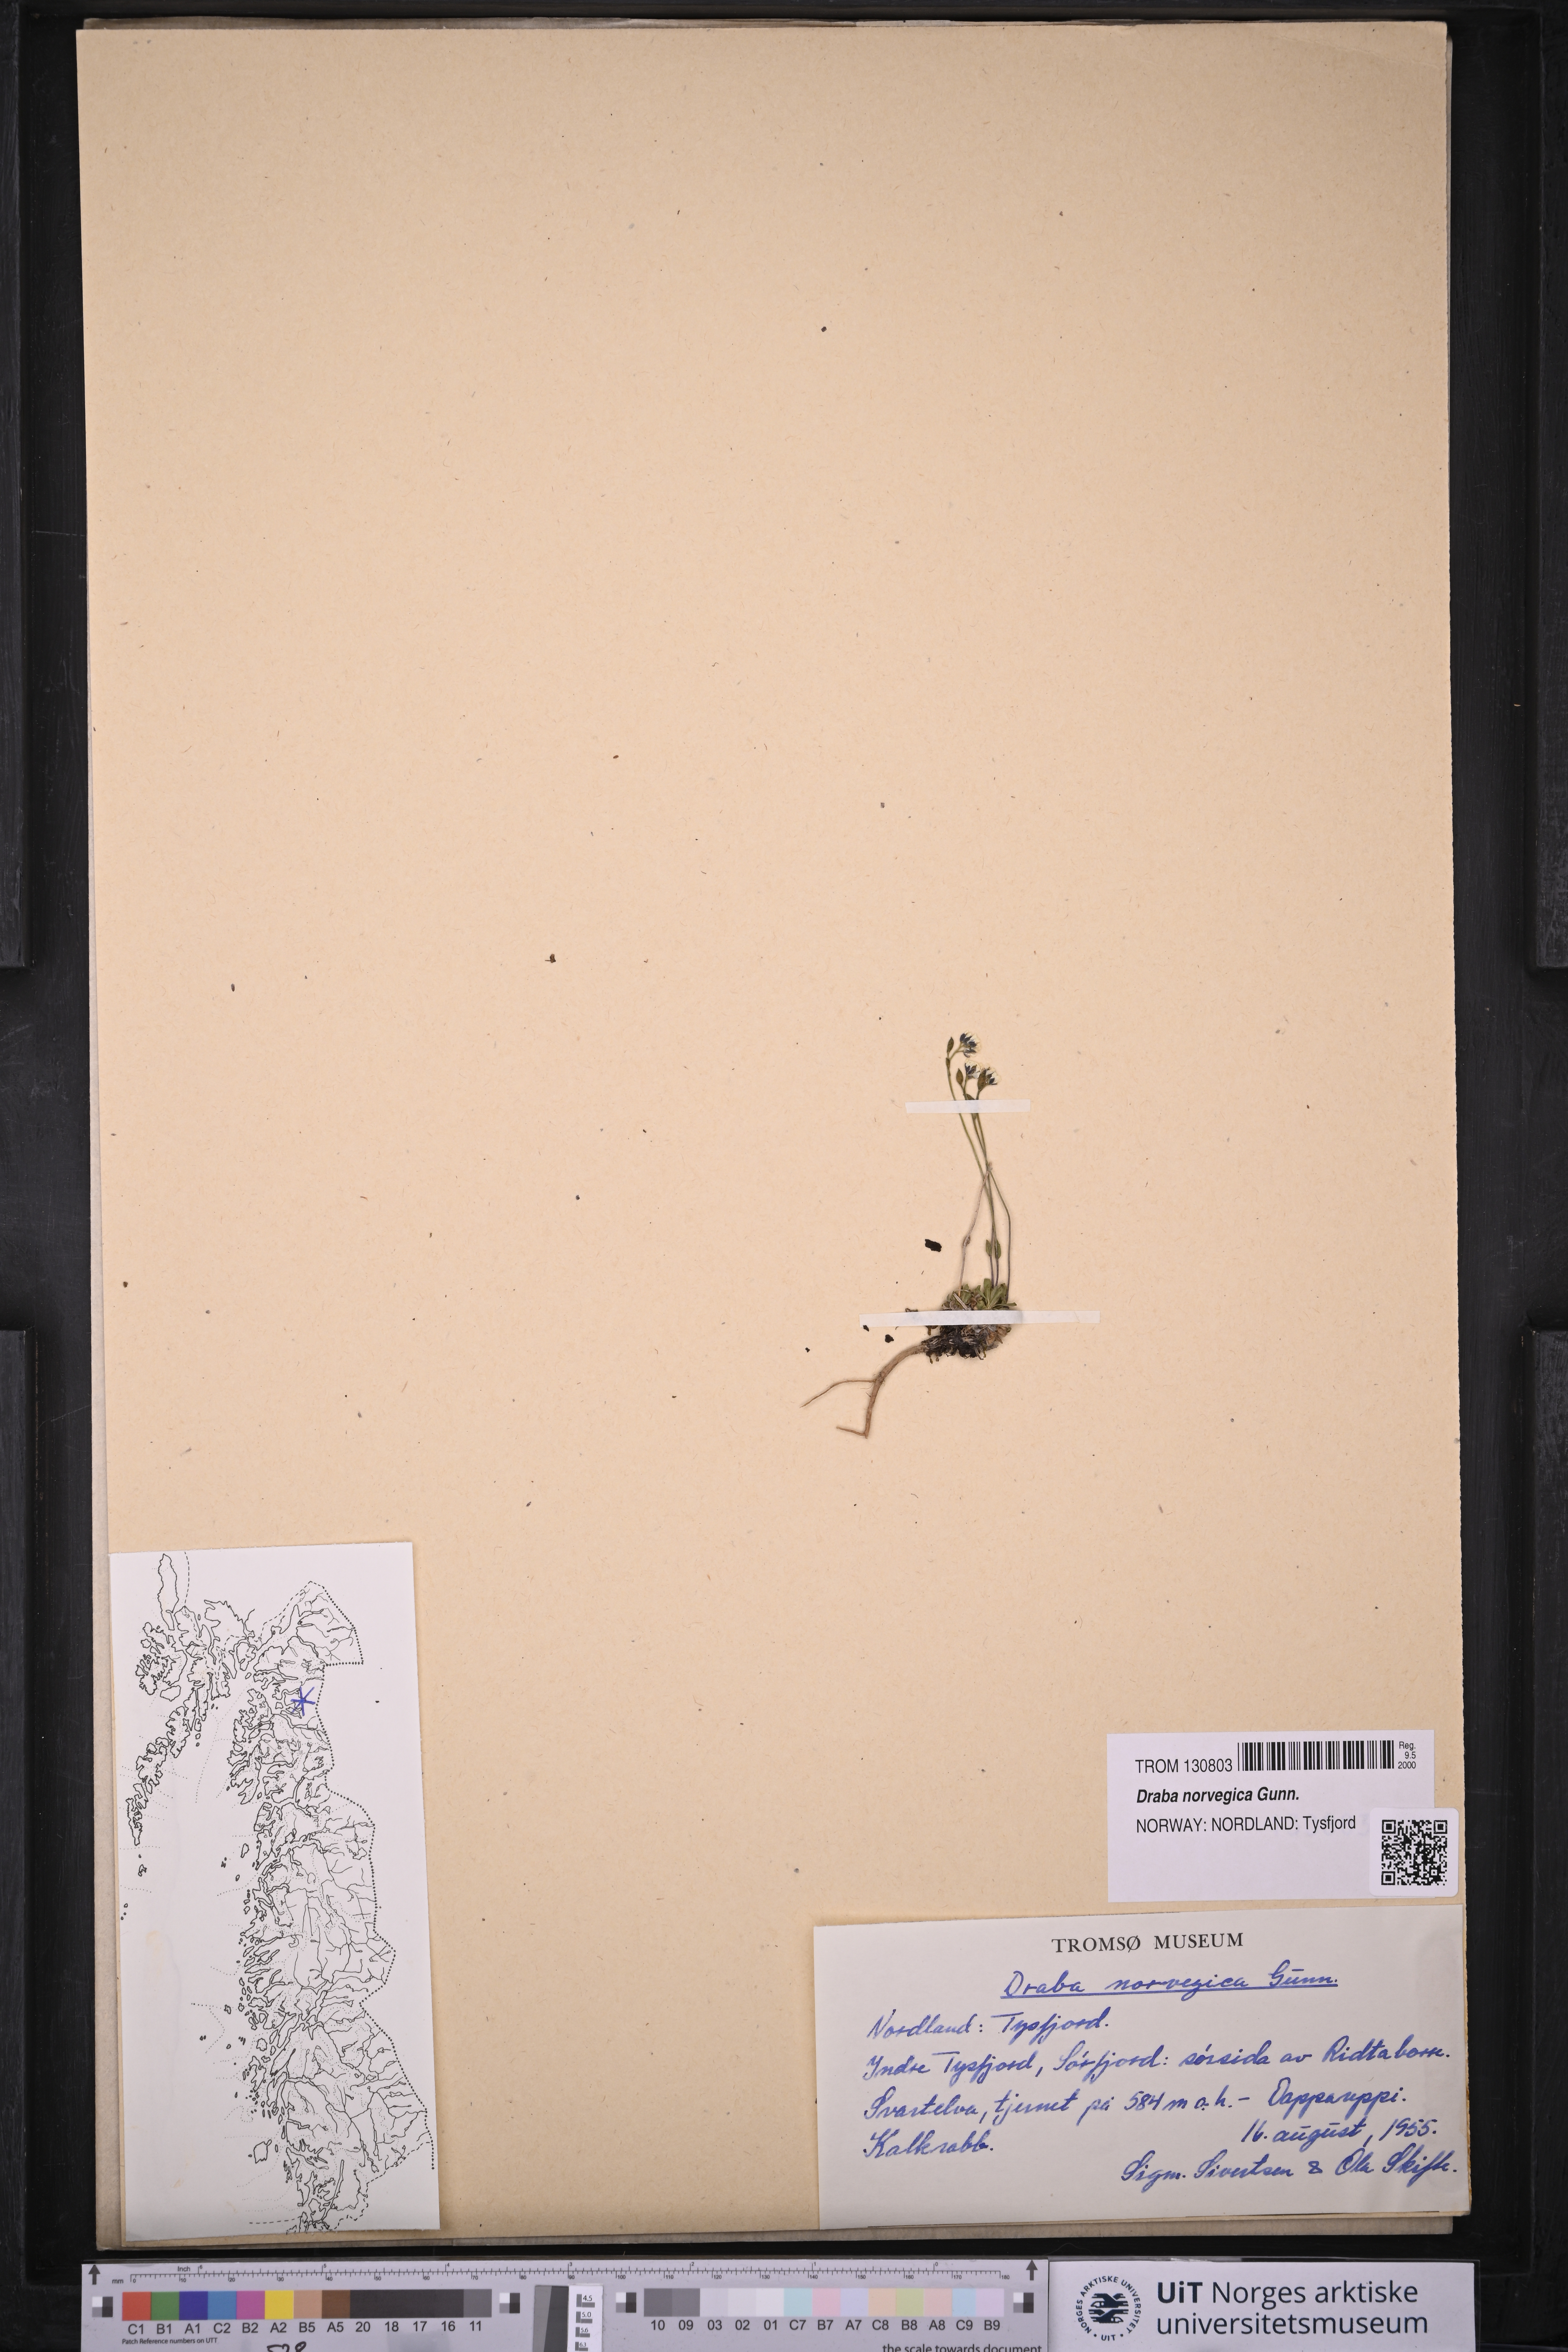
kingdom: Plantae
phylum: Tracheophyta
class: Magnoliopsida
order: Brassicales
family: Brassicaceae
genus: Draba
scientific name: Draba norvegica
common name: Rock whitlowgrass
